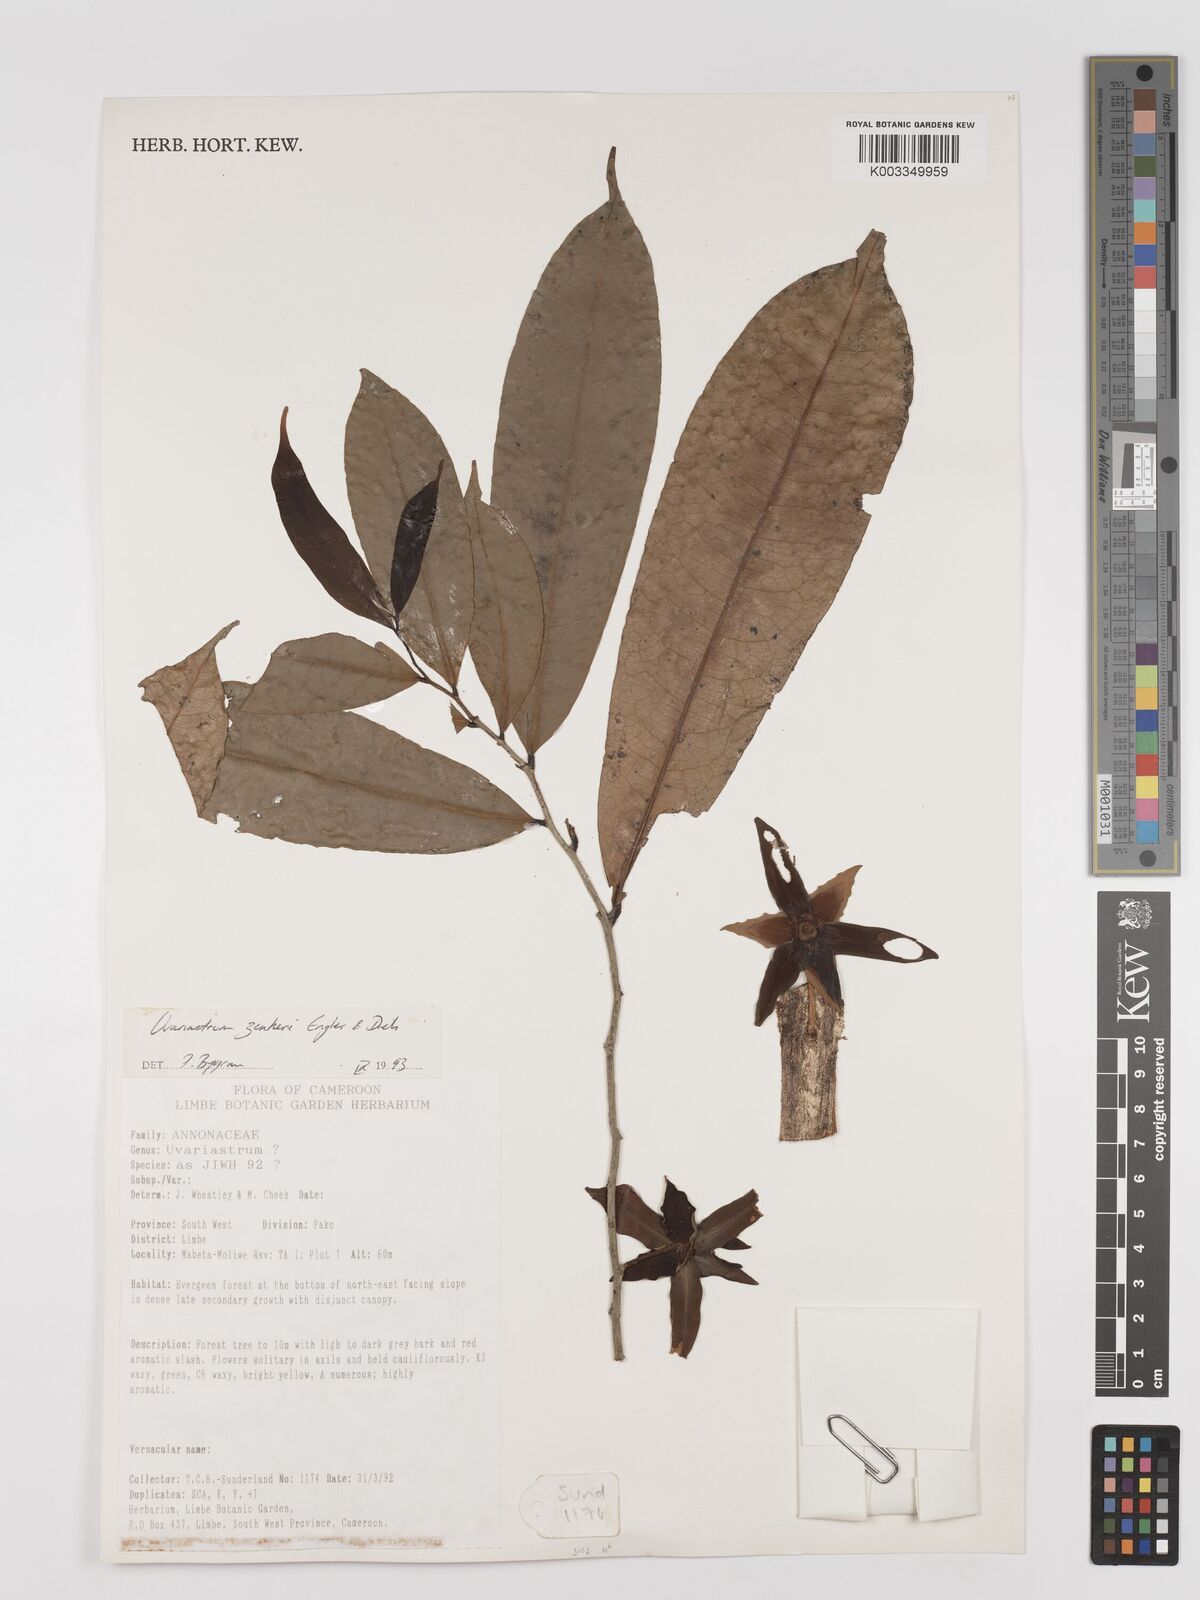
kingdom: Plantae
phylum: Tracheophyta
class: Magnoliopsida
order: Magnoliales
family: Annonaceae
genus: Uvariastrum
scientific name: Uvariastrum zenkeri
